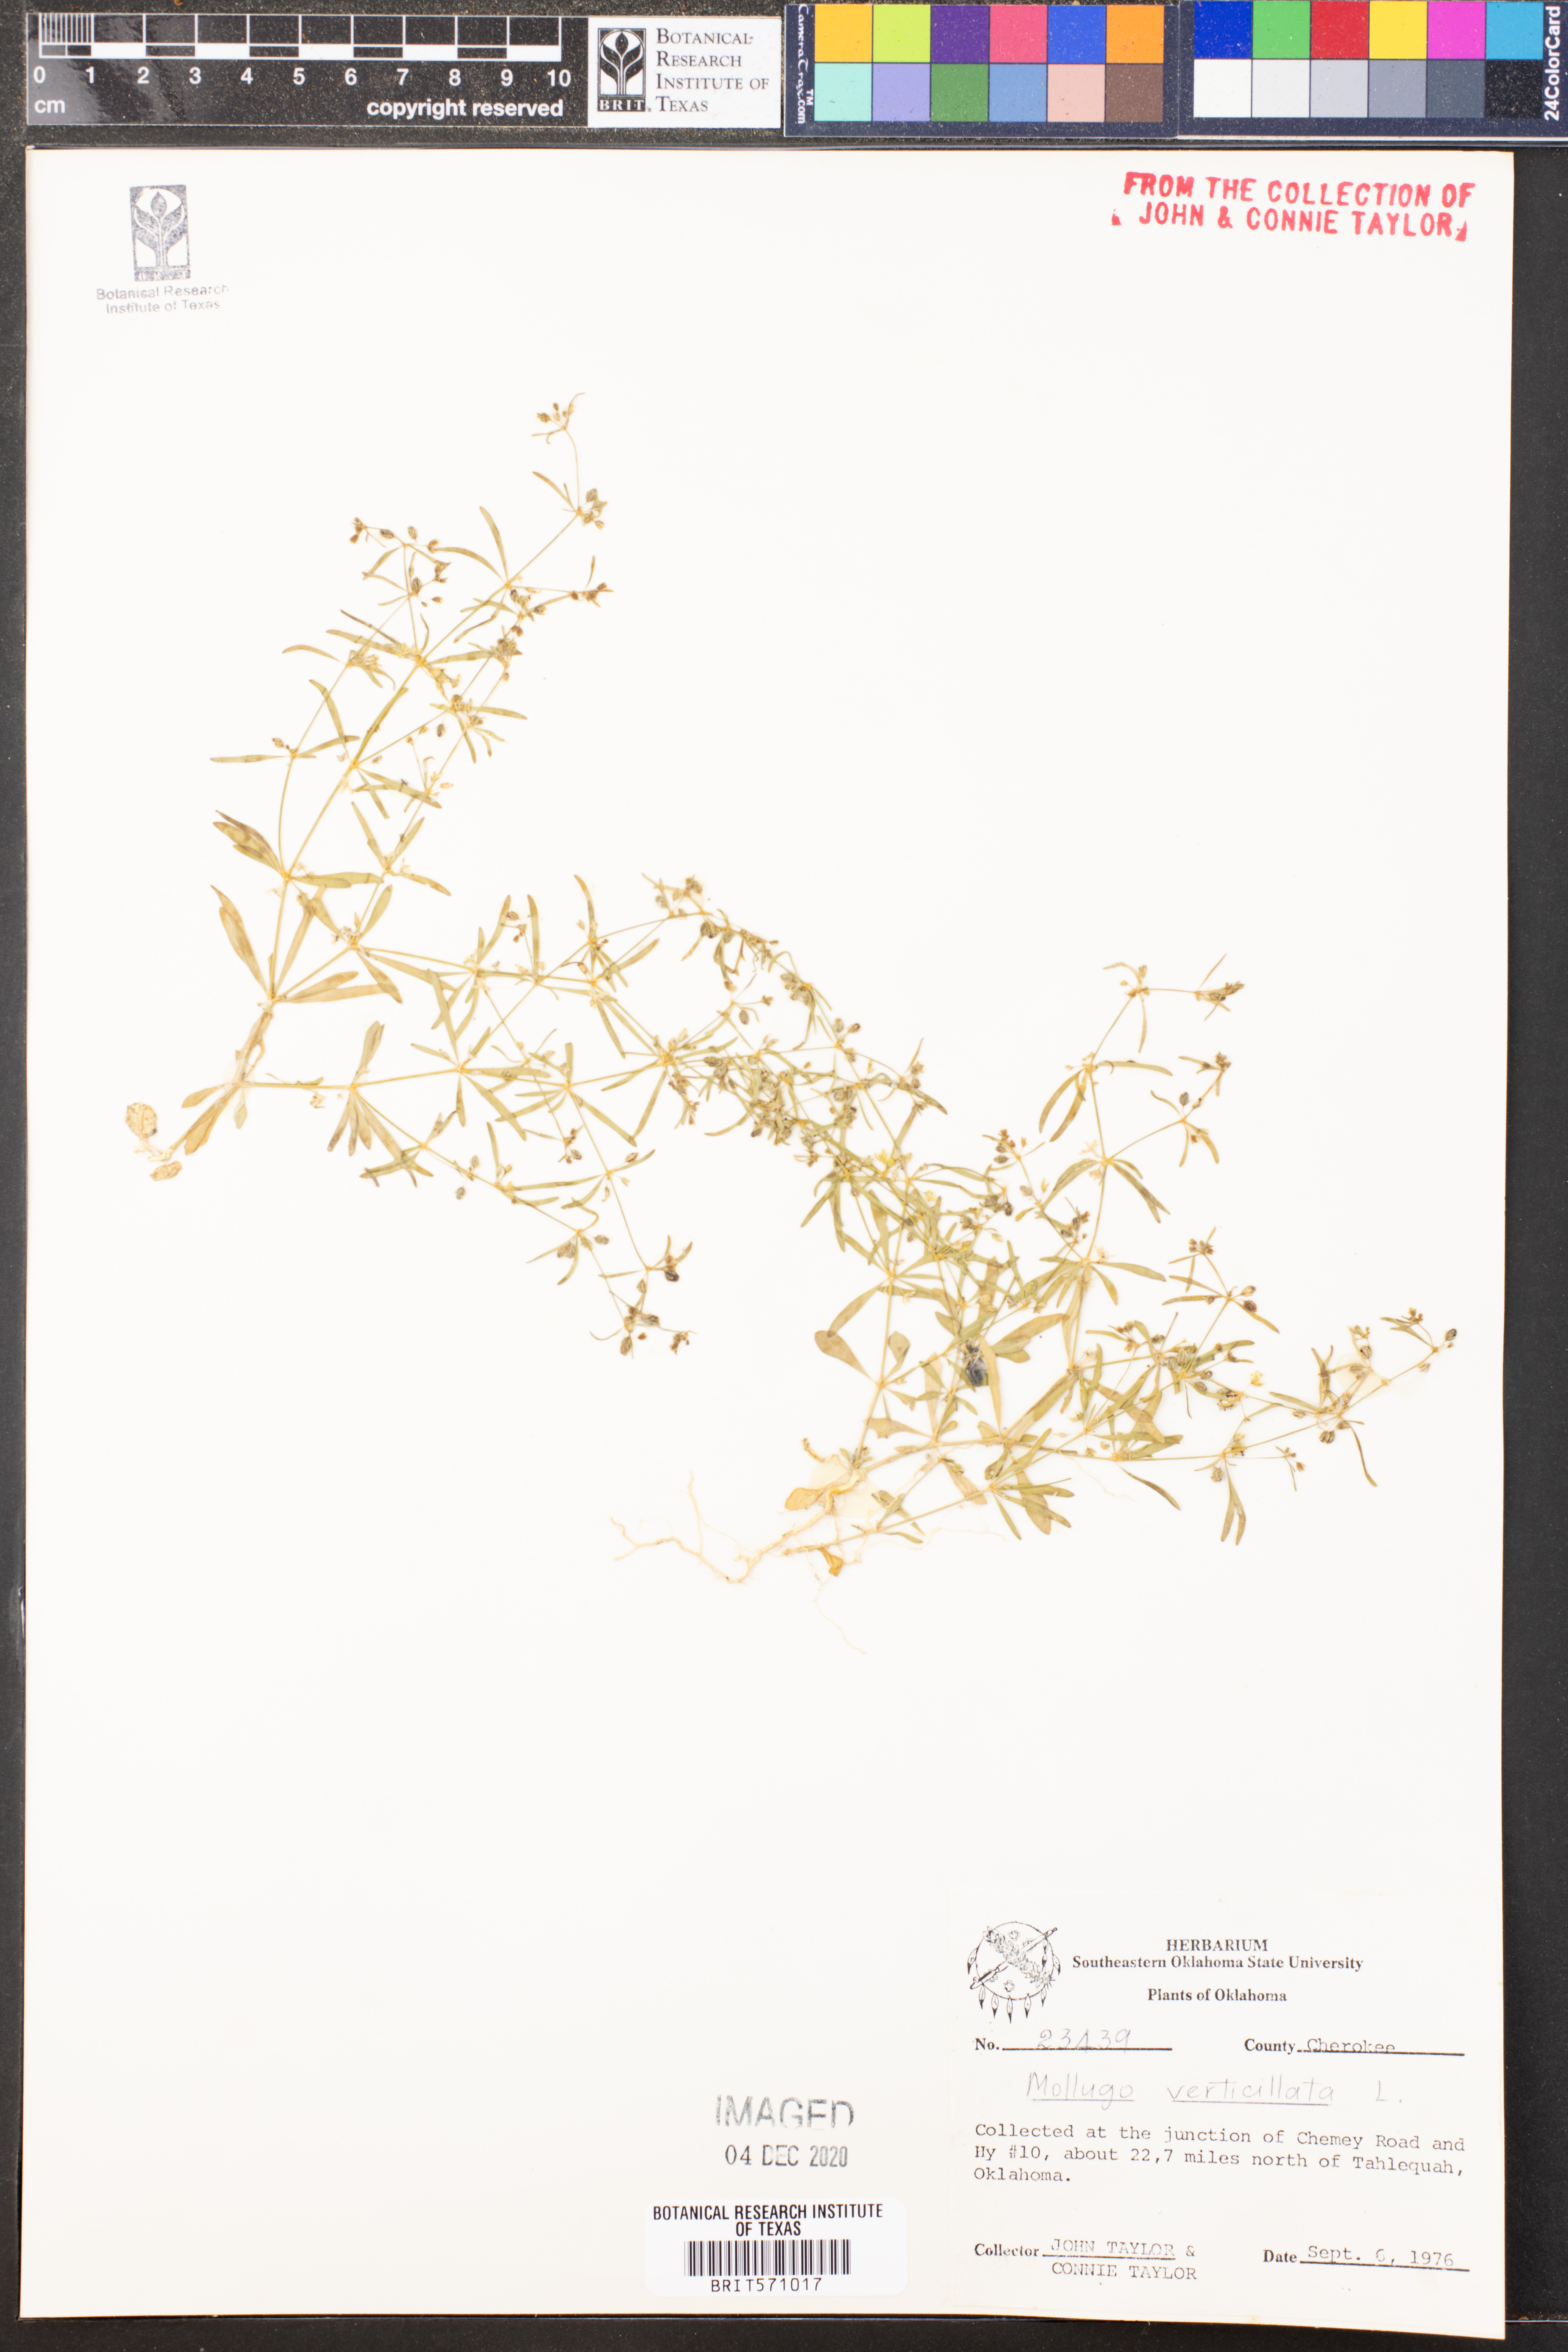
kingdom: Plantae
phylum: Tracheophyta
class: Magnoliopsida
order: Caryophyllales
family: Molluginaceae
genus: Mollugo
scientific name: Mollugo verticillata
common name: Green carpetweed
